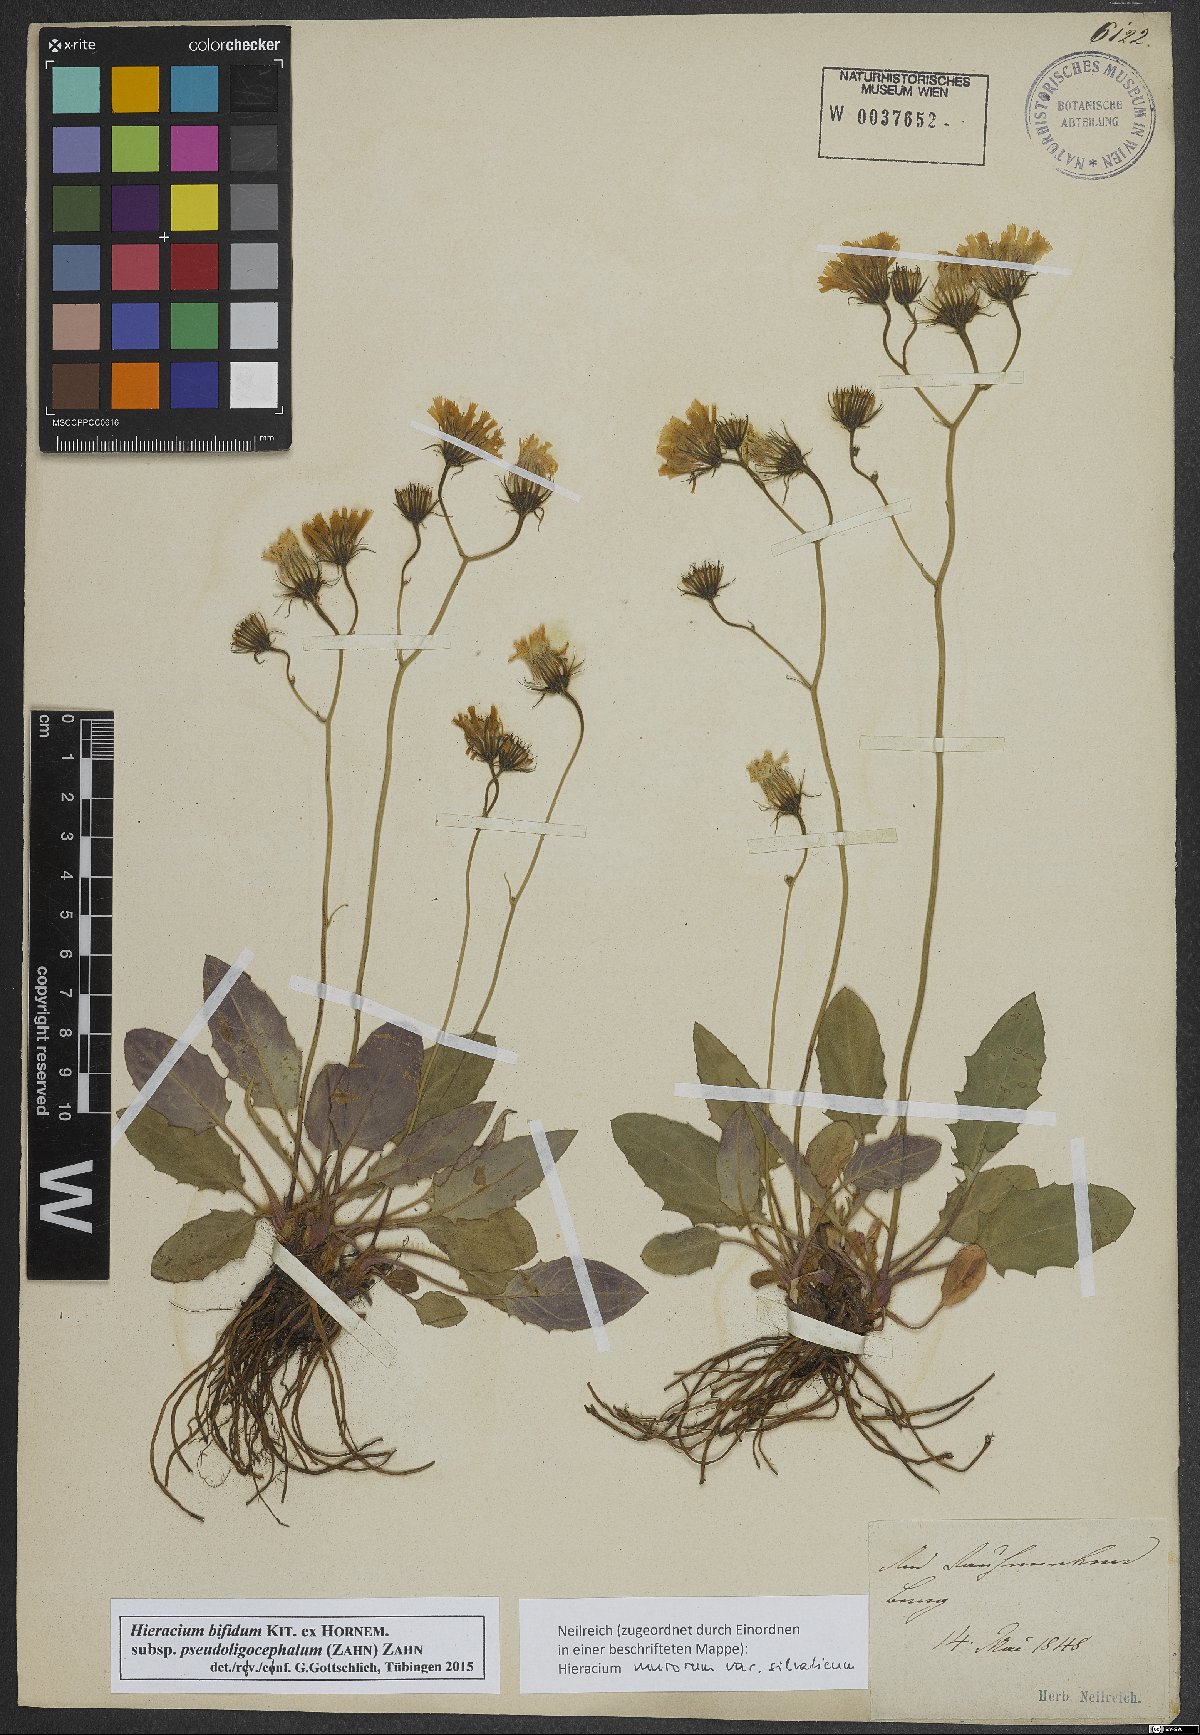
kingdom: Plantae
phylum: Tracheophyta
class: Magnoliopsida
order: Asterales
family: Asteraceae
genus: Hieracium
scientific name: Hieracium bifidum
